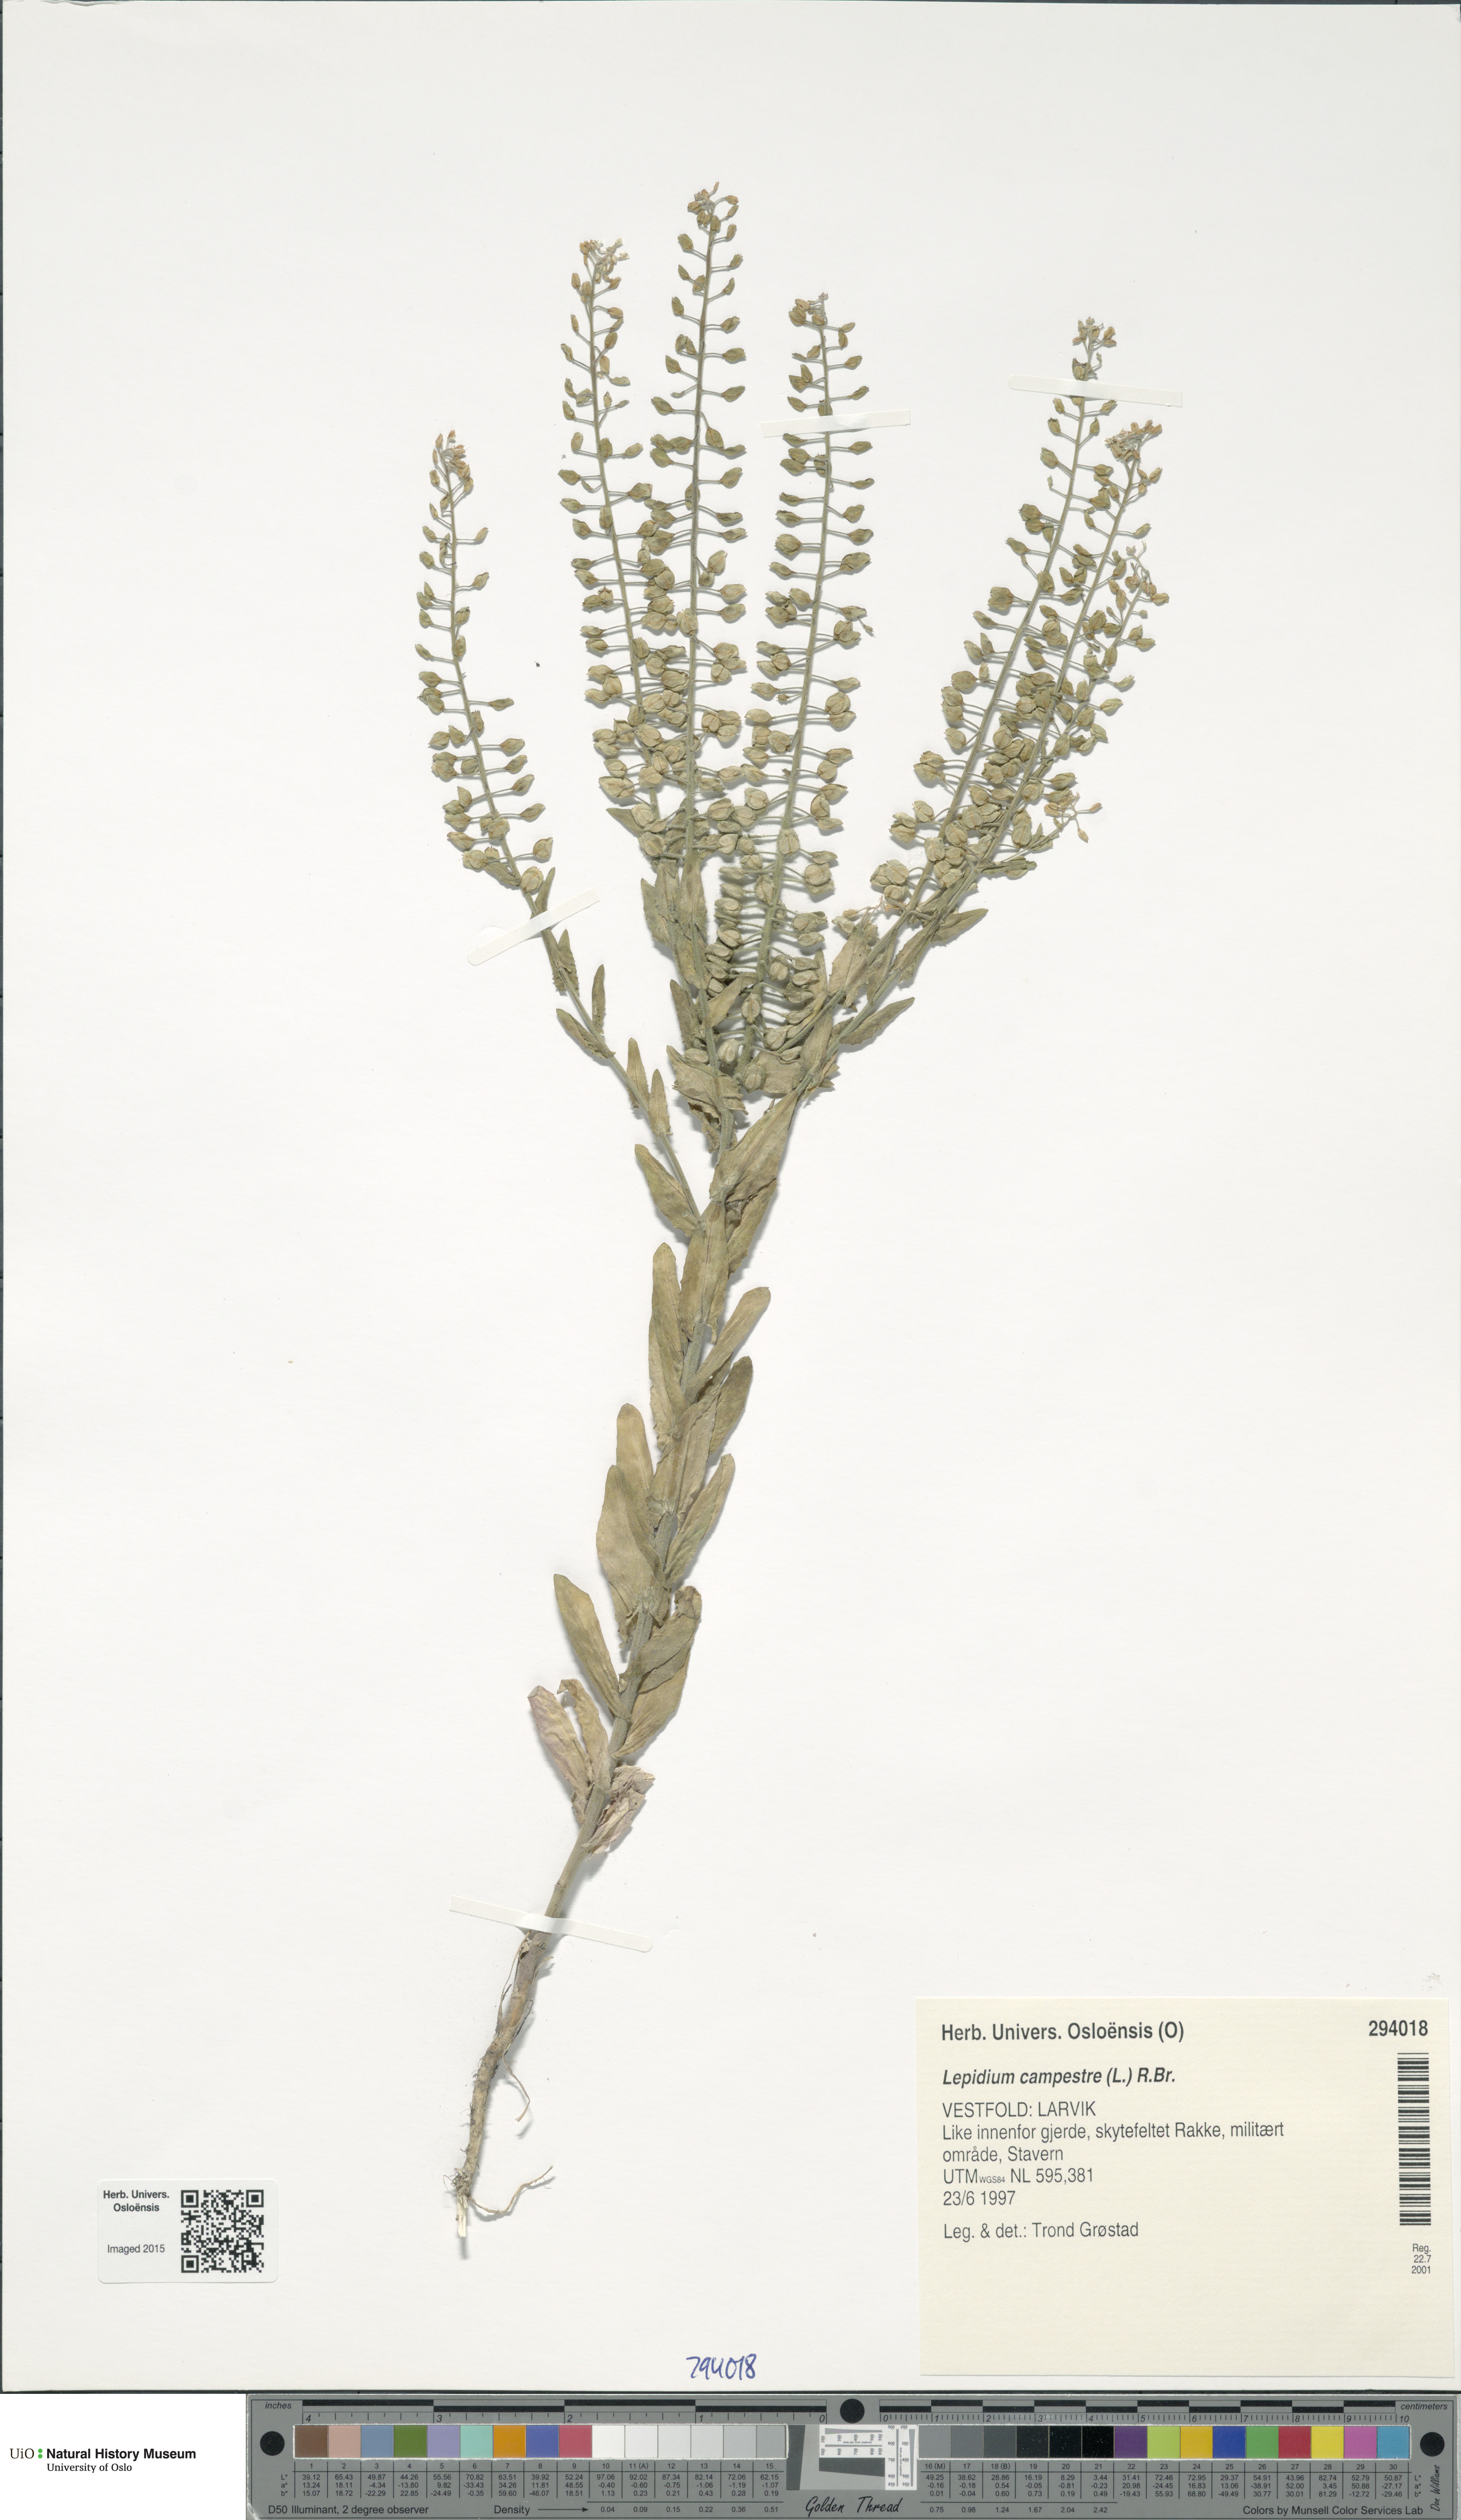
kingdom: Plantae
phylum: Tracheophyta
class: Magnoliopsida
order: Brassicales
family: Brassicaceae
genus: Lepidium
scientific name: Lepidium campestre
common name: Field pepperwort
